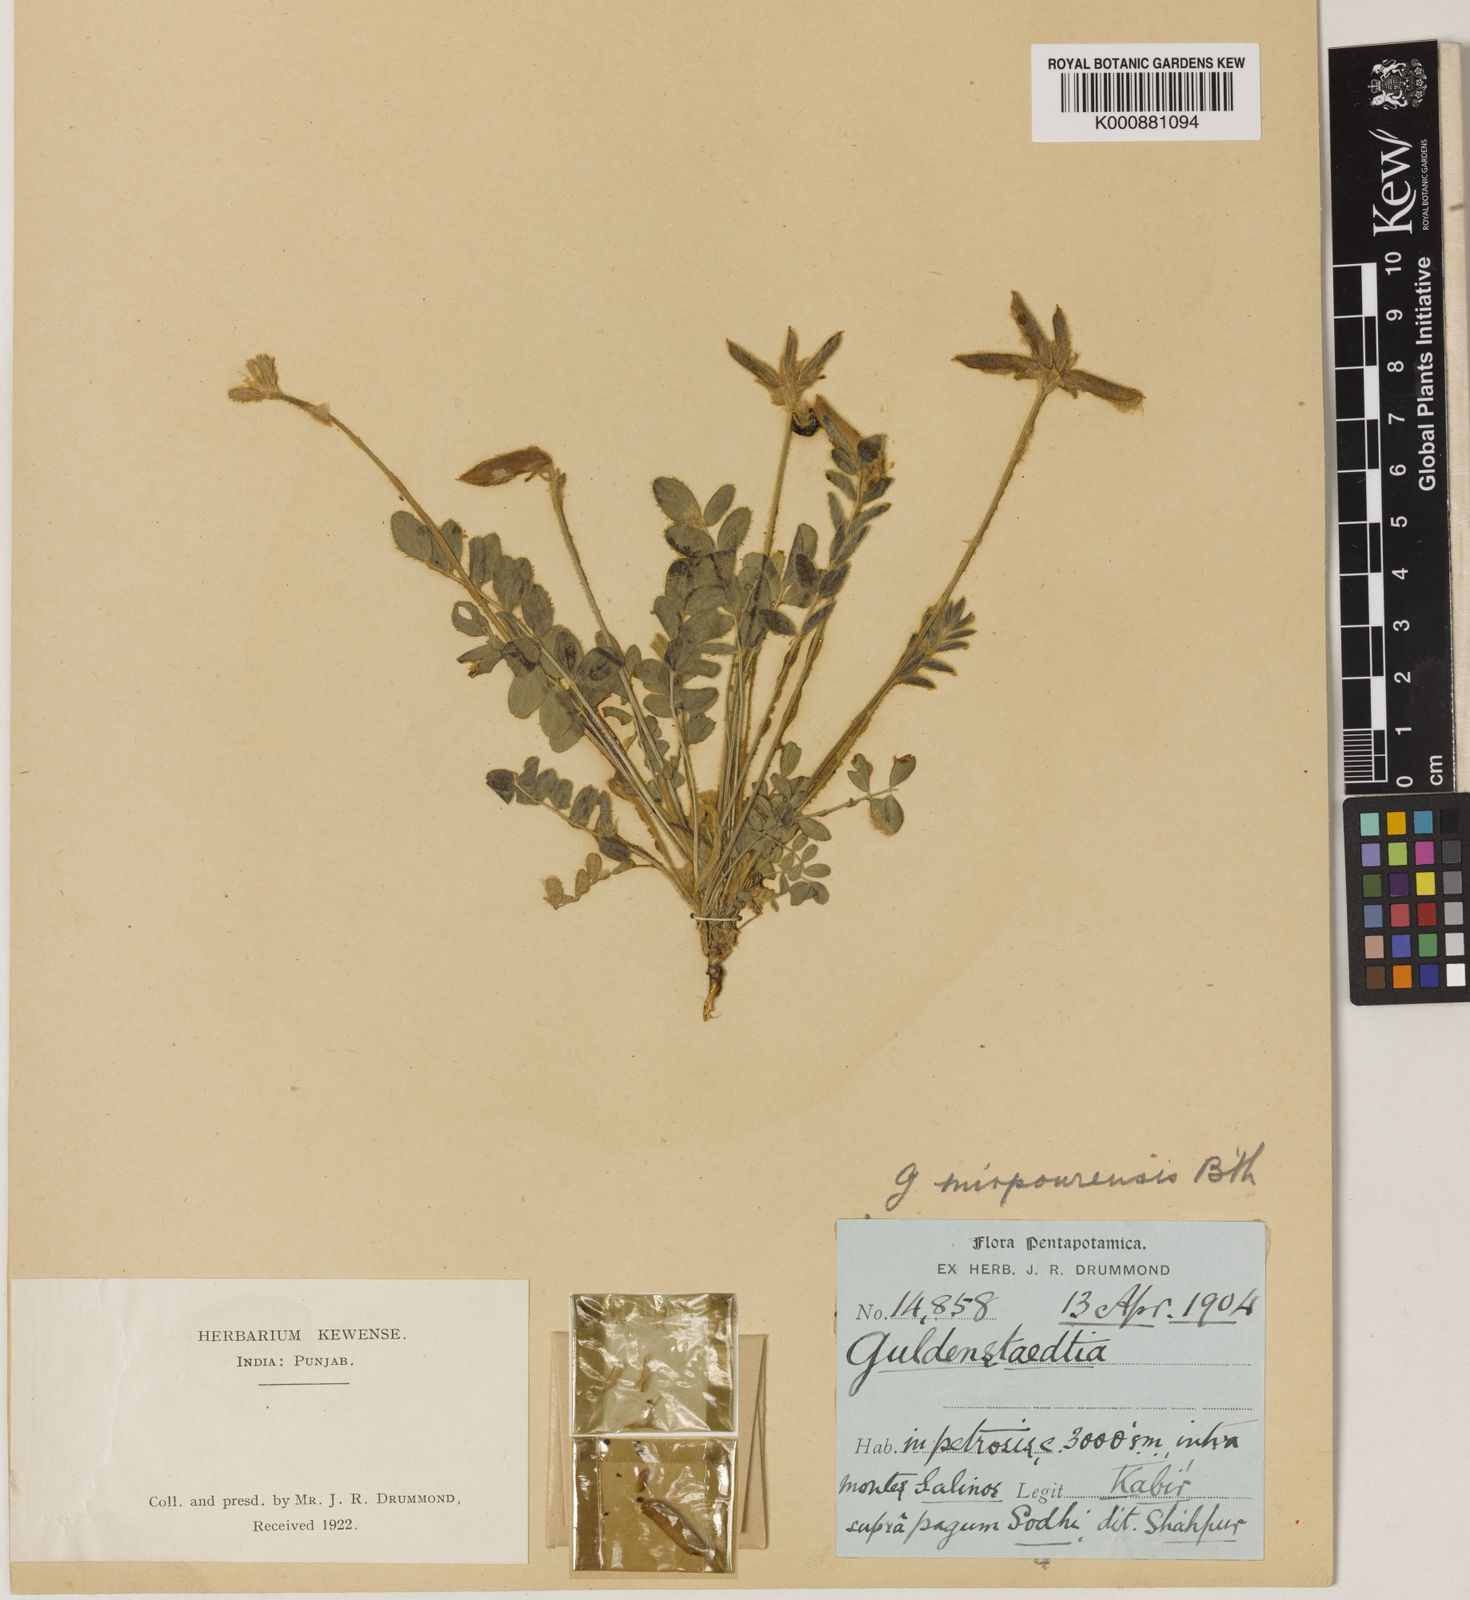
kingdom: Plantae
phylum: Tracheophyta
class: Magnoliopsida
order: Fabales
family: Fabaceae
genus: Gueldenstaedtia
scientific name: Gueldenstaedtia
